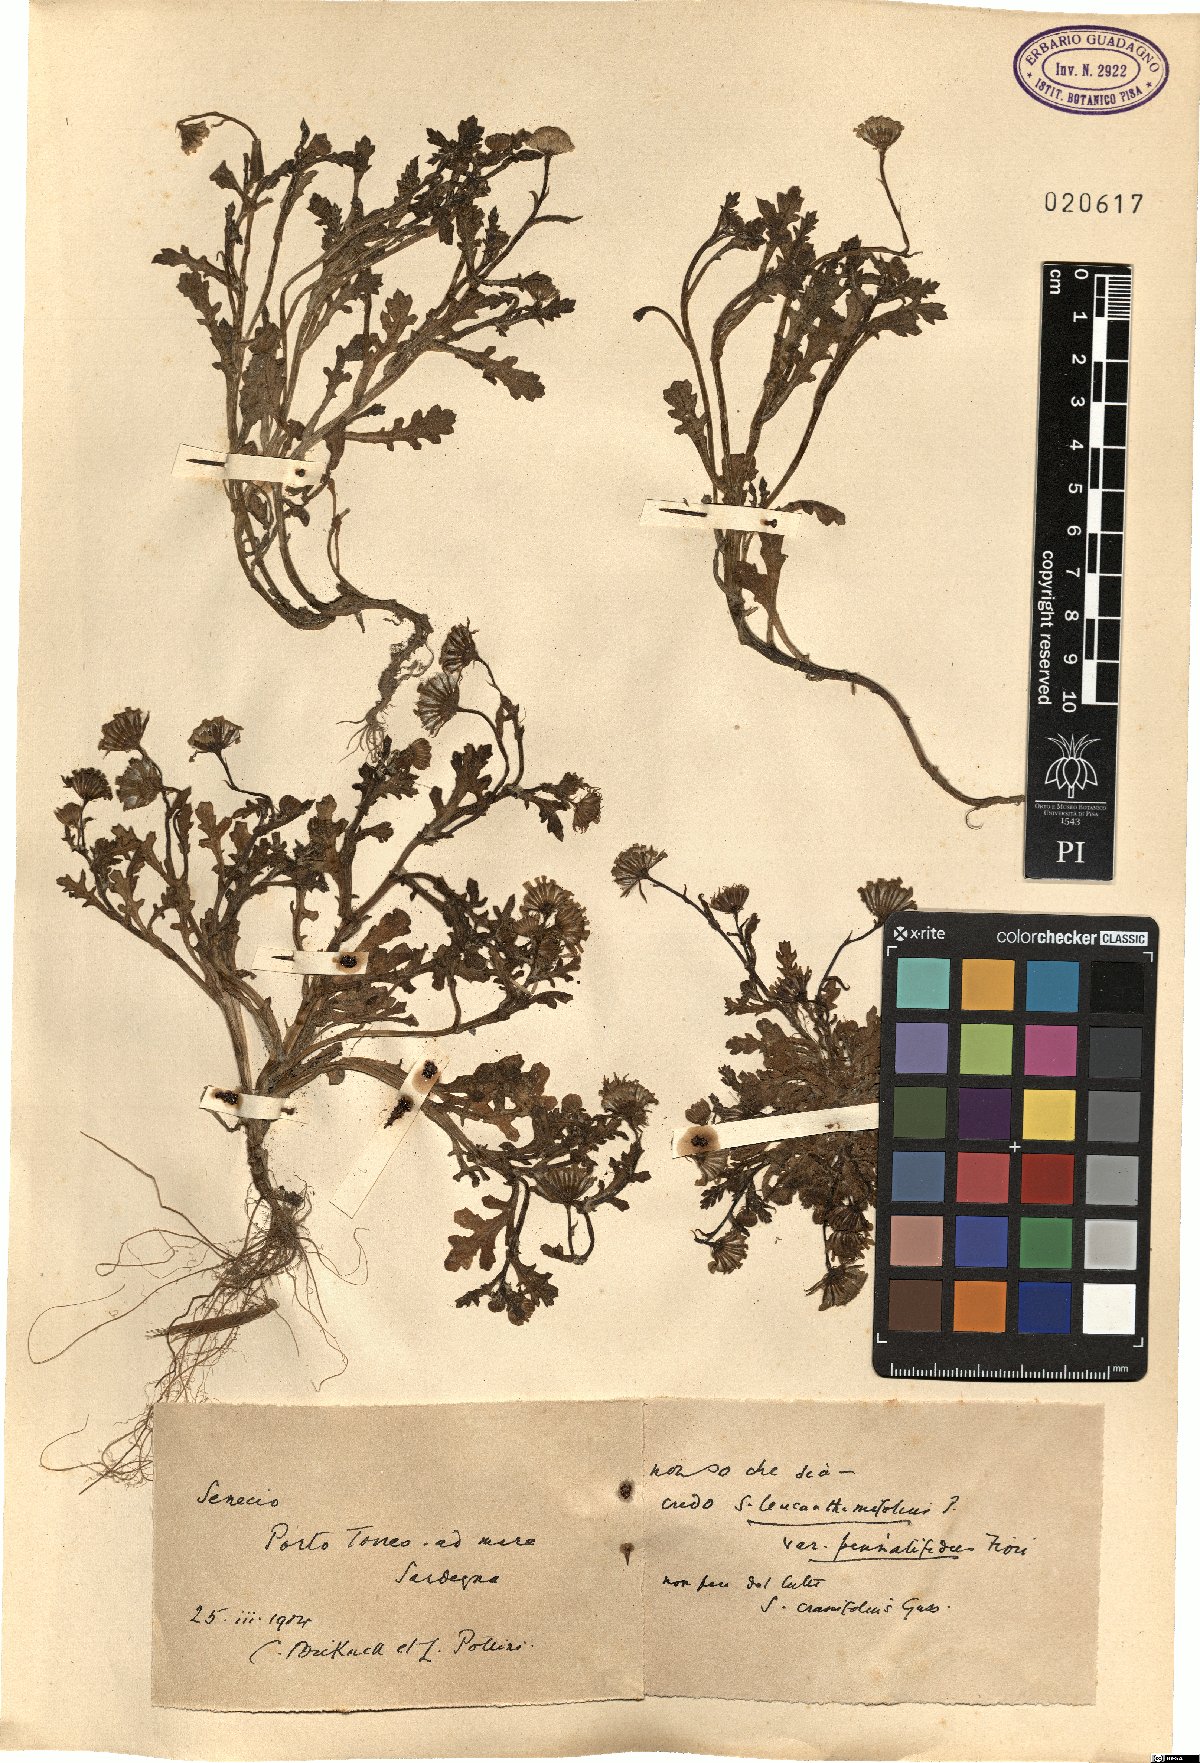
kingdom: Plantae
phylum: Tracheophyta
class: Magnoliopsida
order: Asterales
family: Asteraceae
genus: Senecio
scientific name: Senecio
